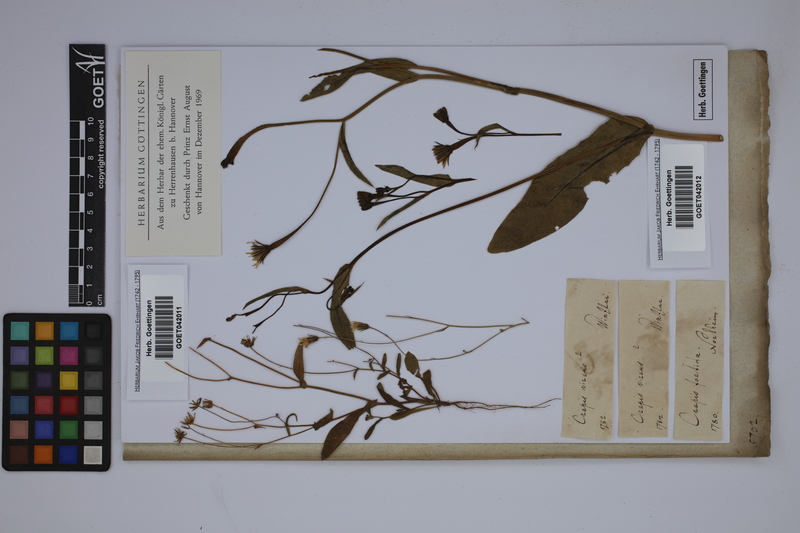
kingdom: Plantae
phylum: Tracheophyta
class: Magnoliopsida
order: Asterales
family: Asteraceae
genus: Crepis
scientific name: Crepis capillaris
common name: Smooth hawksbeard
